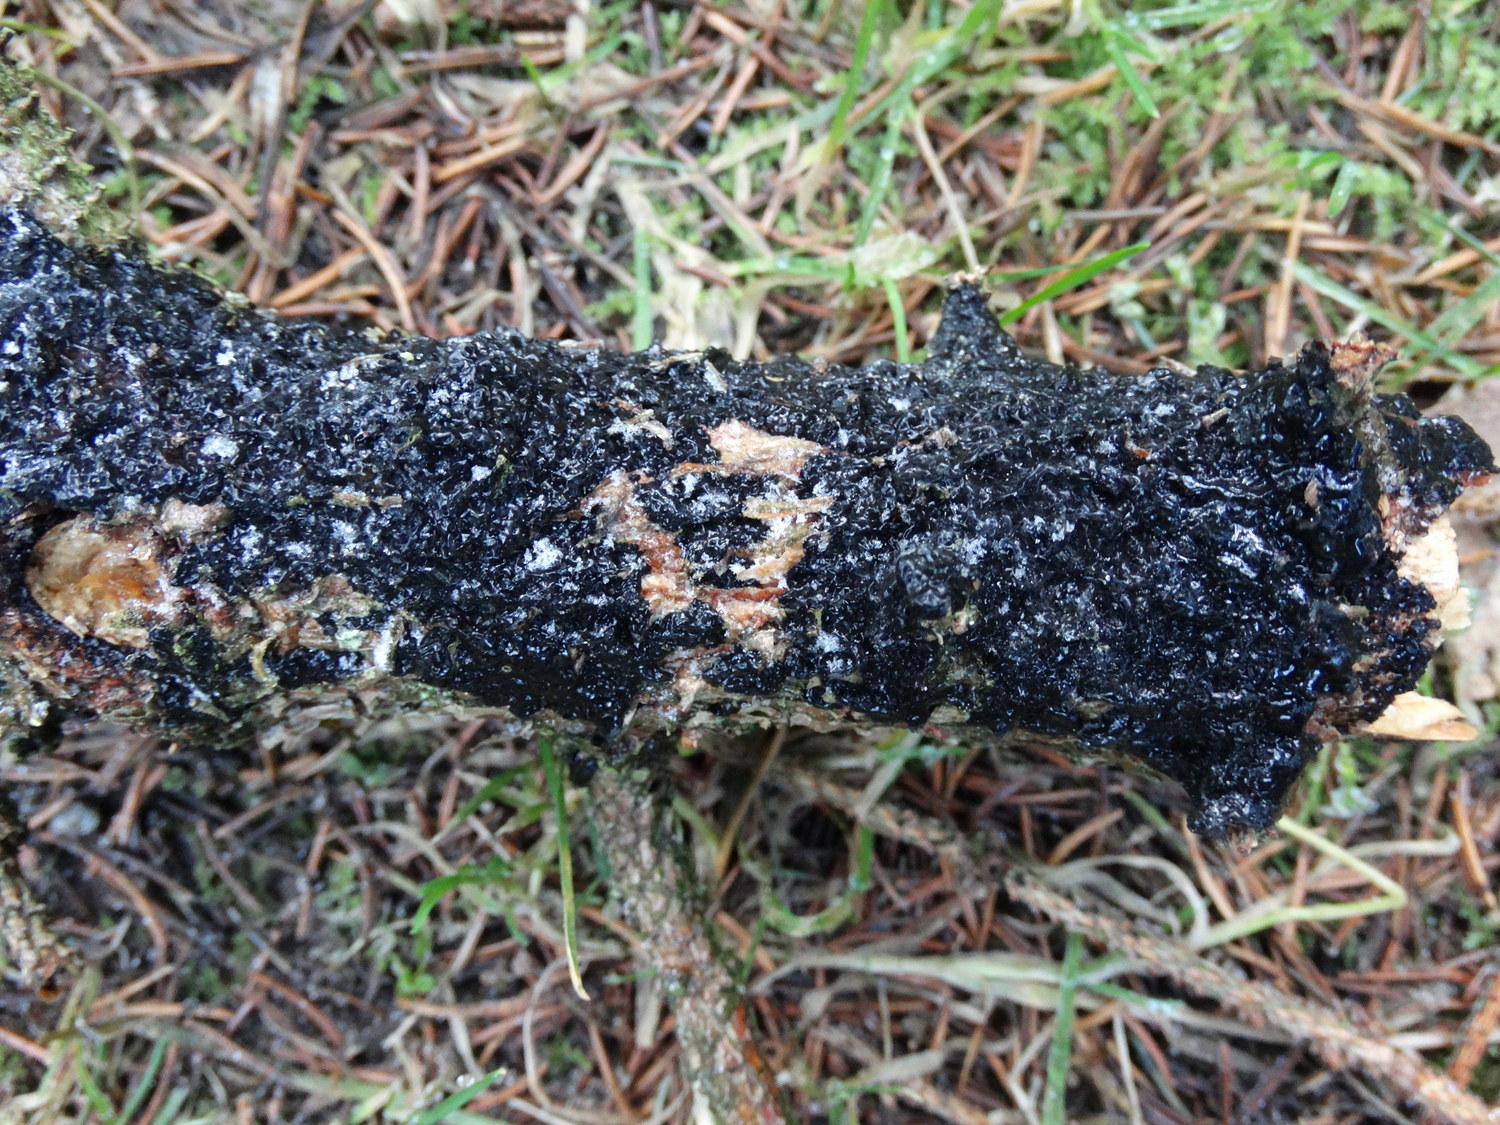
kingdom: Fungi
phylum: Basidiomycota
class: Agaricomycetes
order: Auriculariales
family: Auriculariaceae
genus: Exidia
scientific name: Exidia pithya
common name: gran-bævretop
